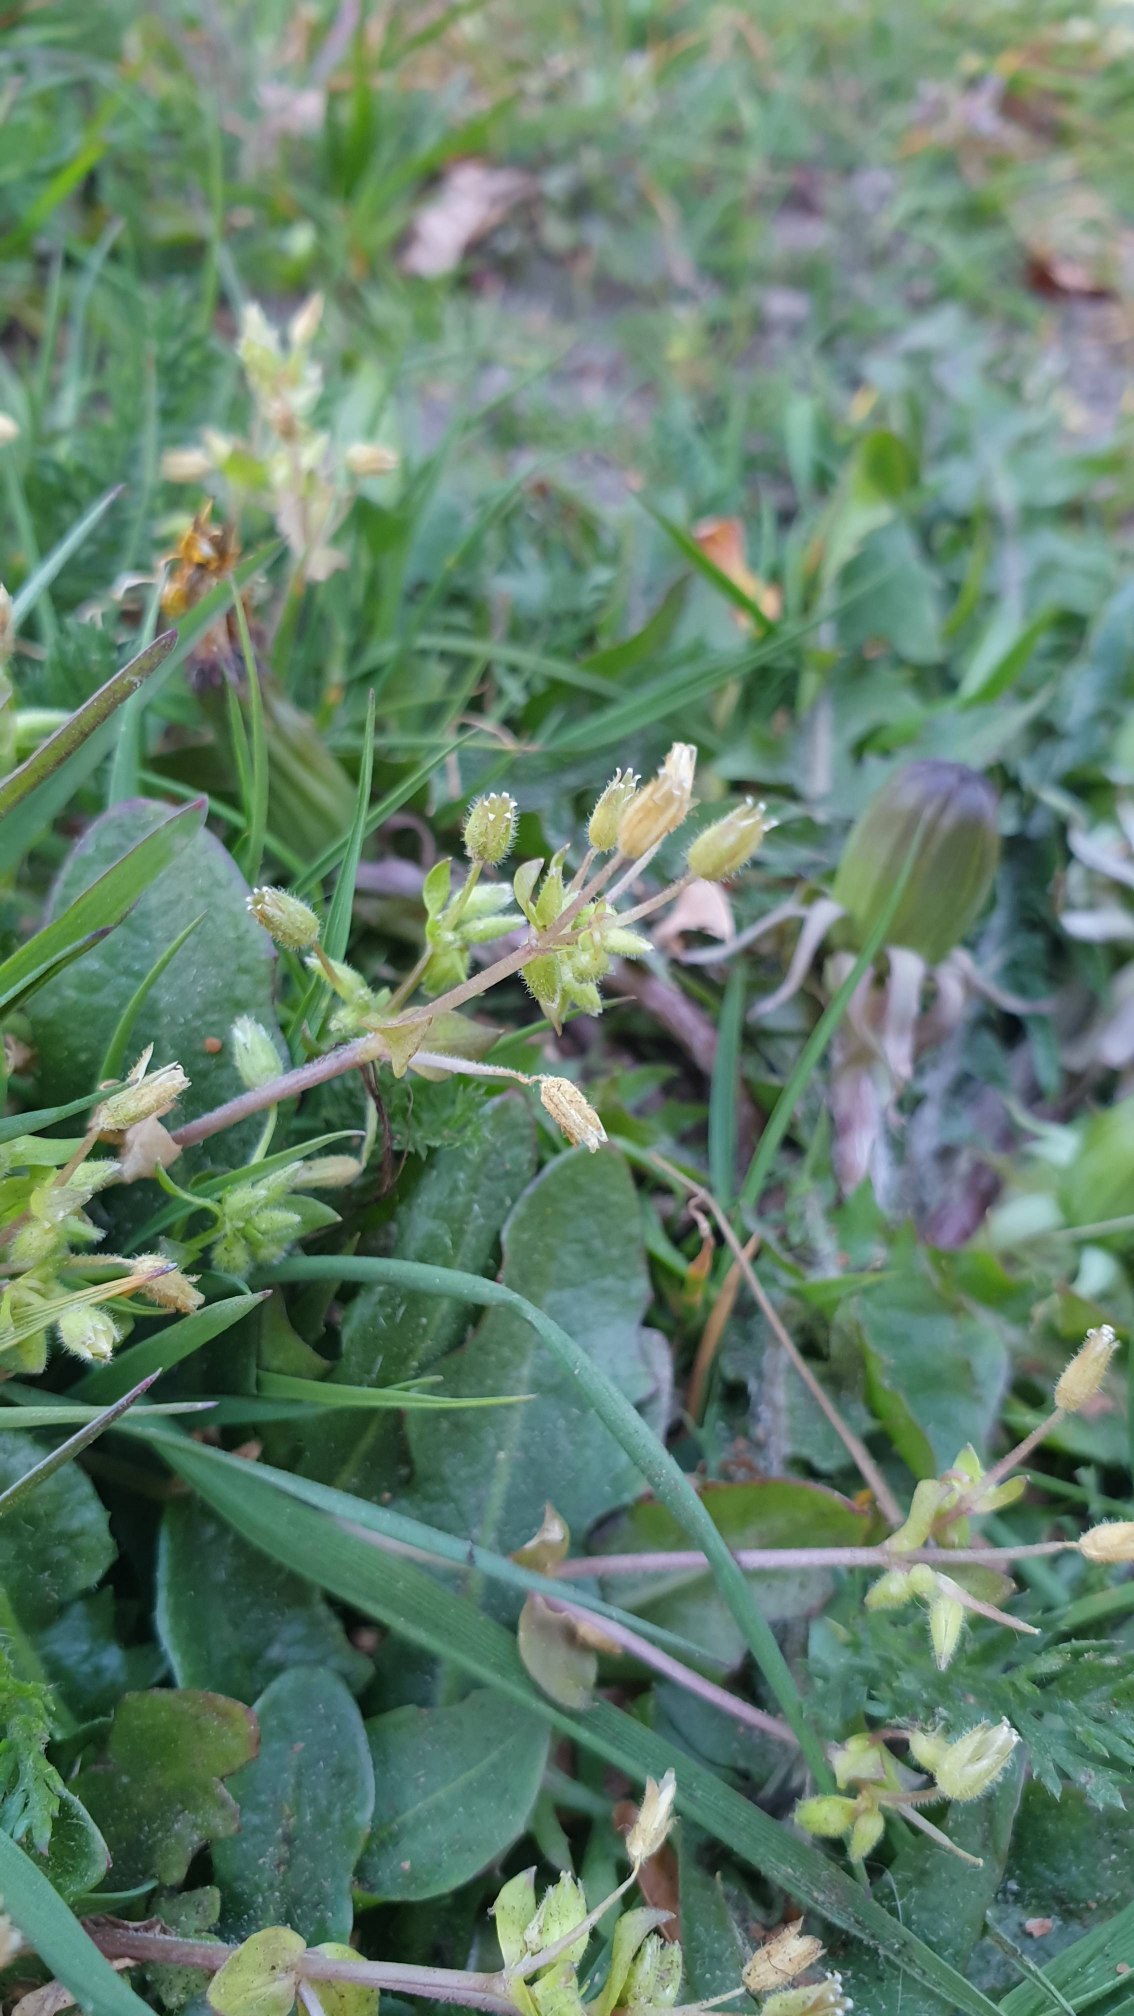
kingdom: Plantae
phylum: Tracheophyta
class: Magnoliopsida
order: Caryophyllales
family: Caryophyllaceae
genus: Stellaria
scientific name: Stellaria apetala
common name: Bleg fuglegræs
